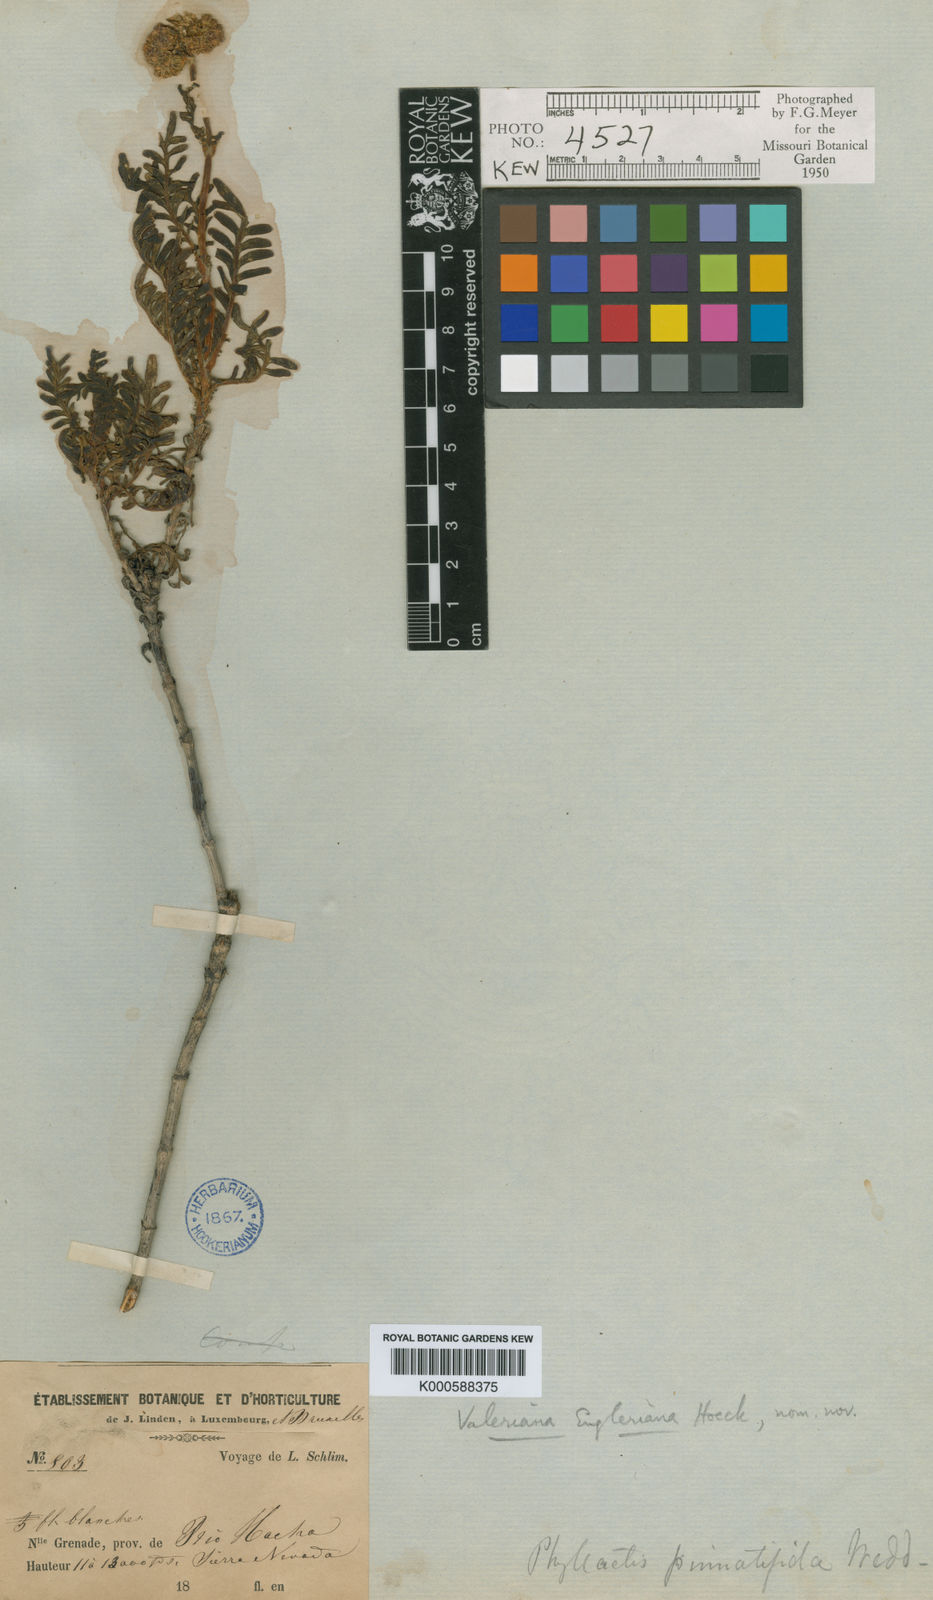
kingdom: Plantae
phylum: Tracheophyta
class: Magnoliopsida
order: Dipsacales
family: Caprifoliaceae
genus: Valeriana
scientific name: Valeriana
